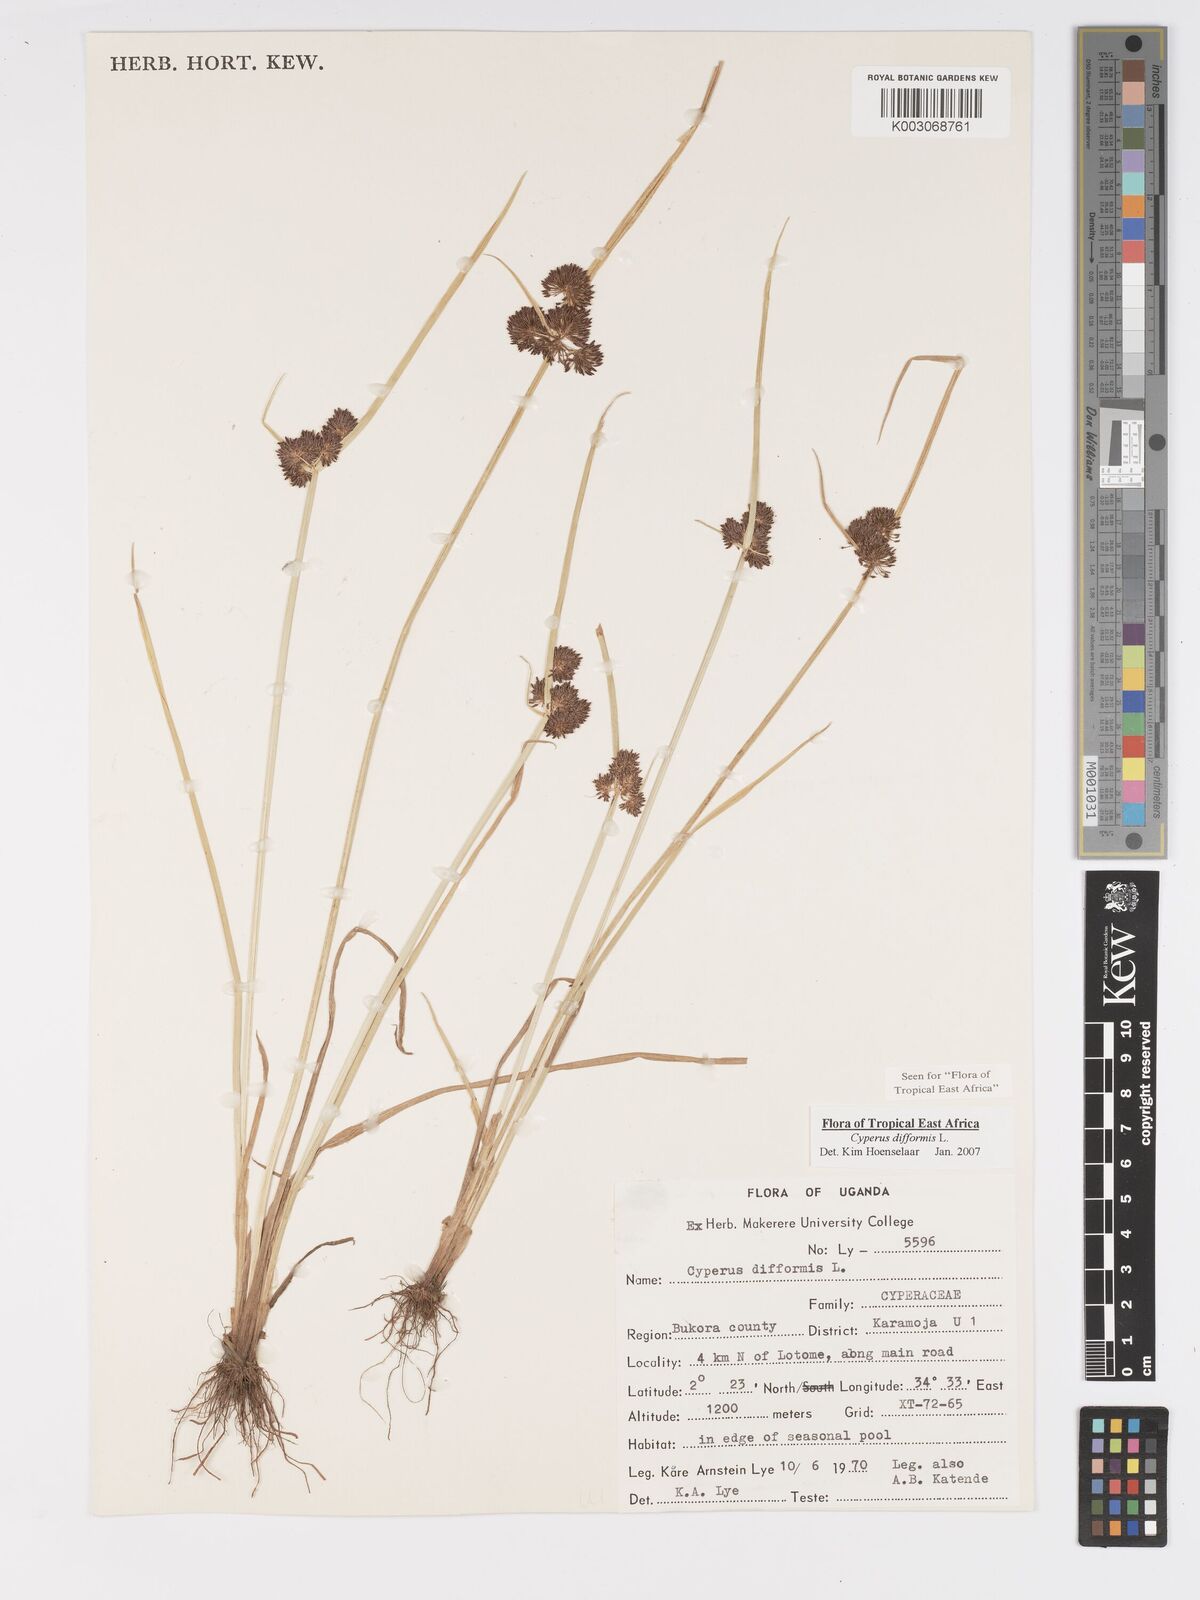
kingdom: Plantae
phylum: Tracheophyta
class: Liliopsida
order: Poales
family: Cyperaceae
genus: Cyperus
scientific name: Cyperus difformis
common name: Variable flatsedge
